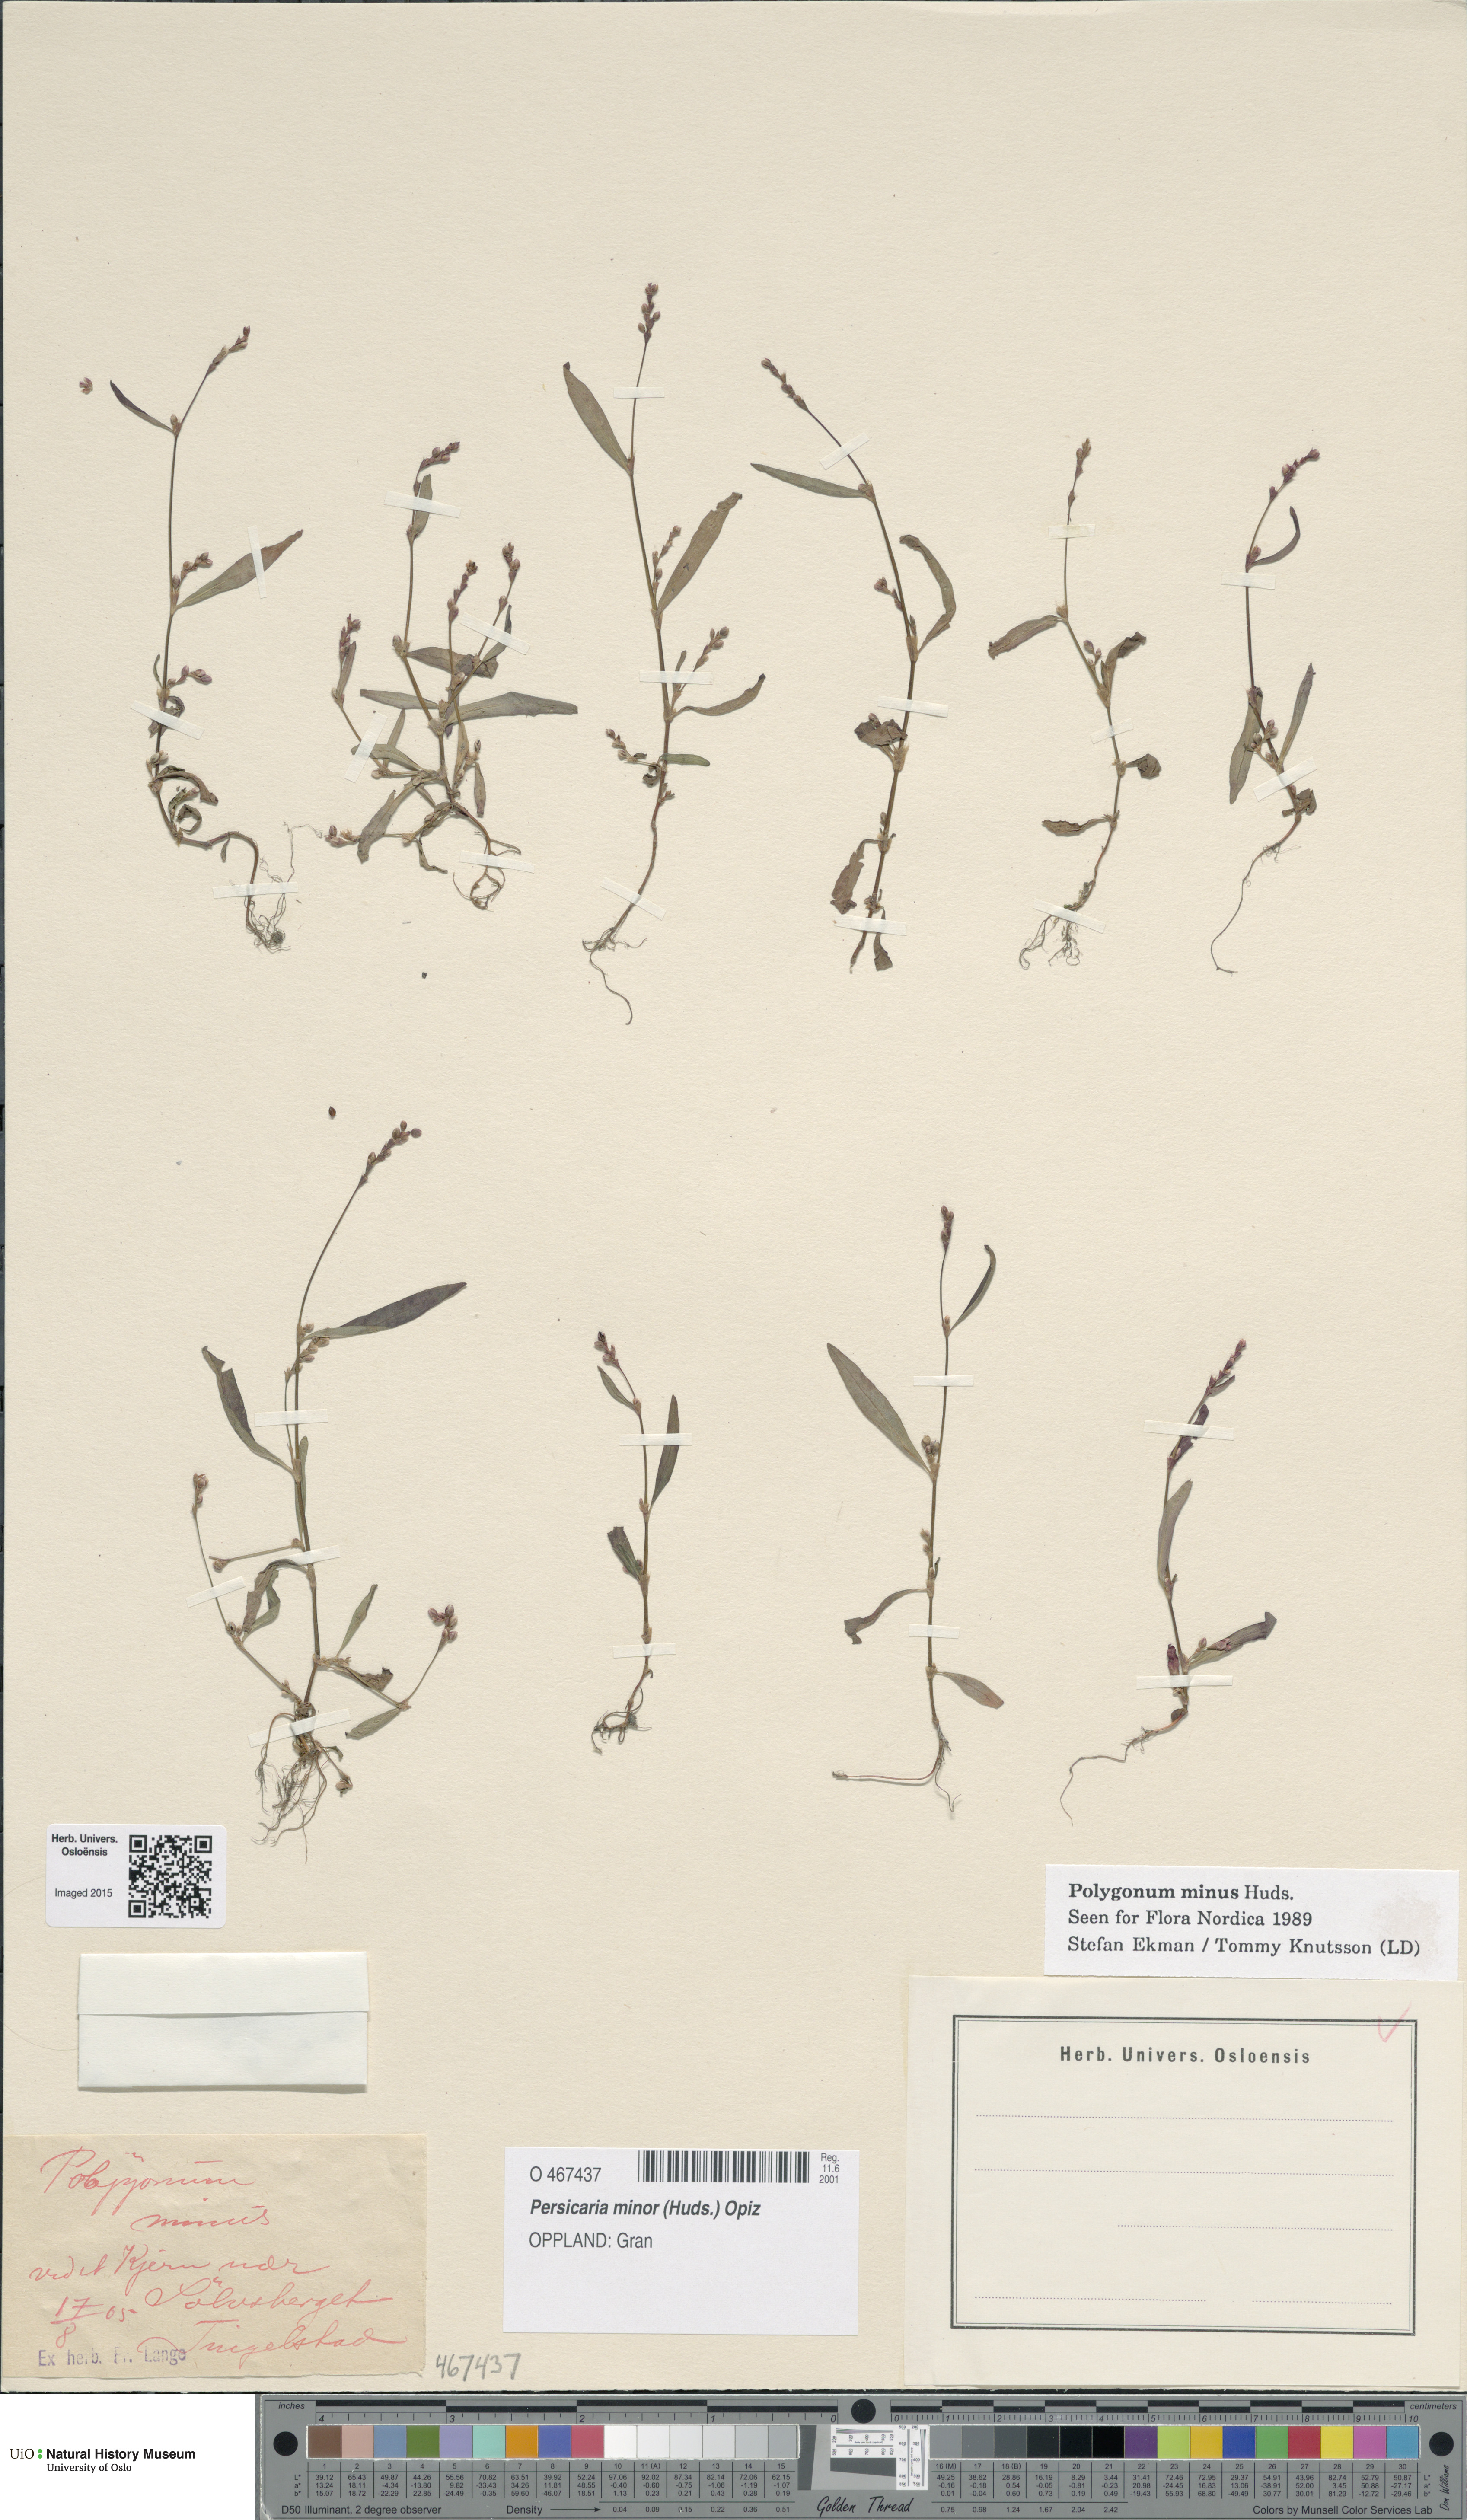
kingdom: Plantae
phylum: Tracheophyta
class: Magnoliopsida
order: Caryophyllales
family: Polygonaceae
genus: Persicaria
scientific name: Persicaria minor
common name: Small water-pepper
